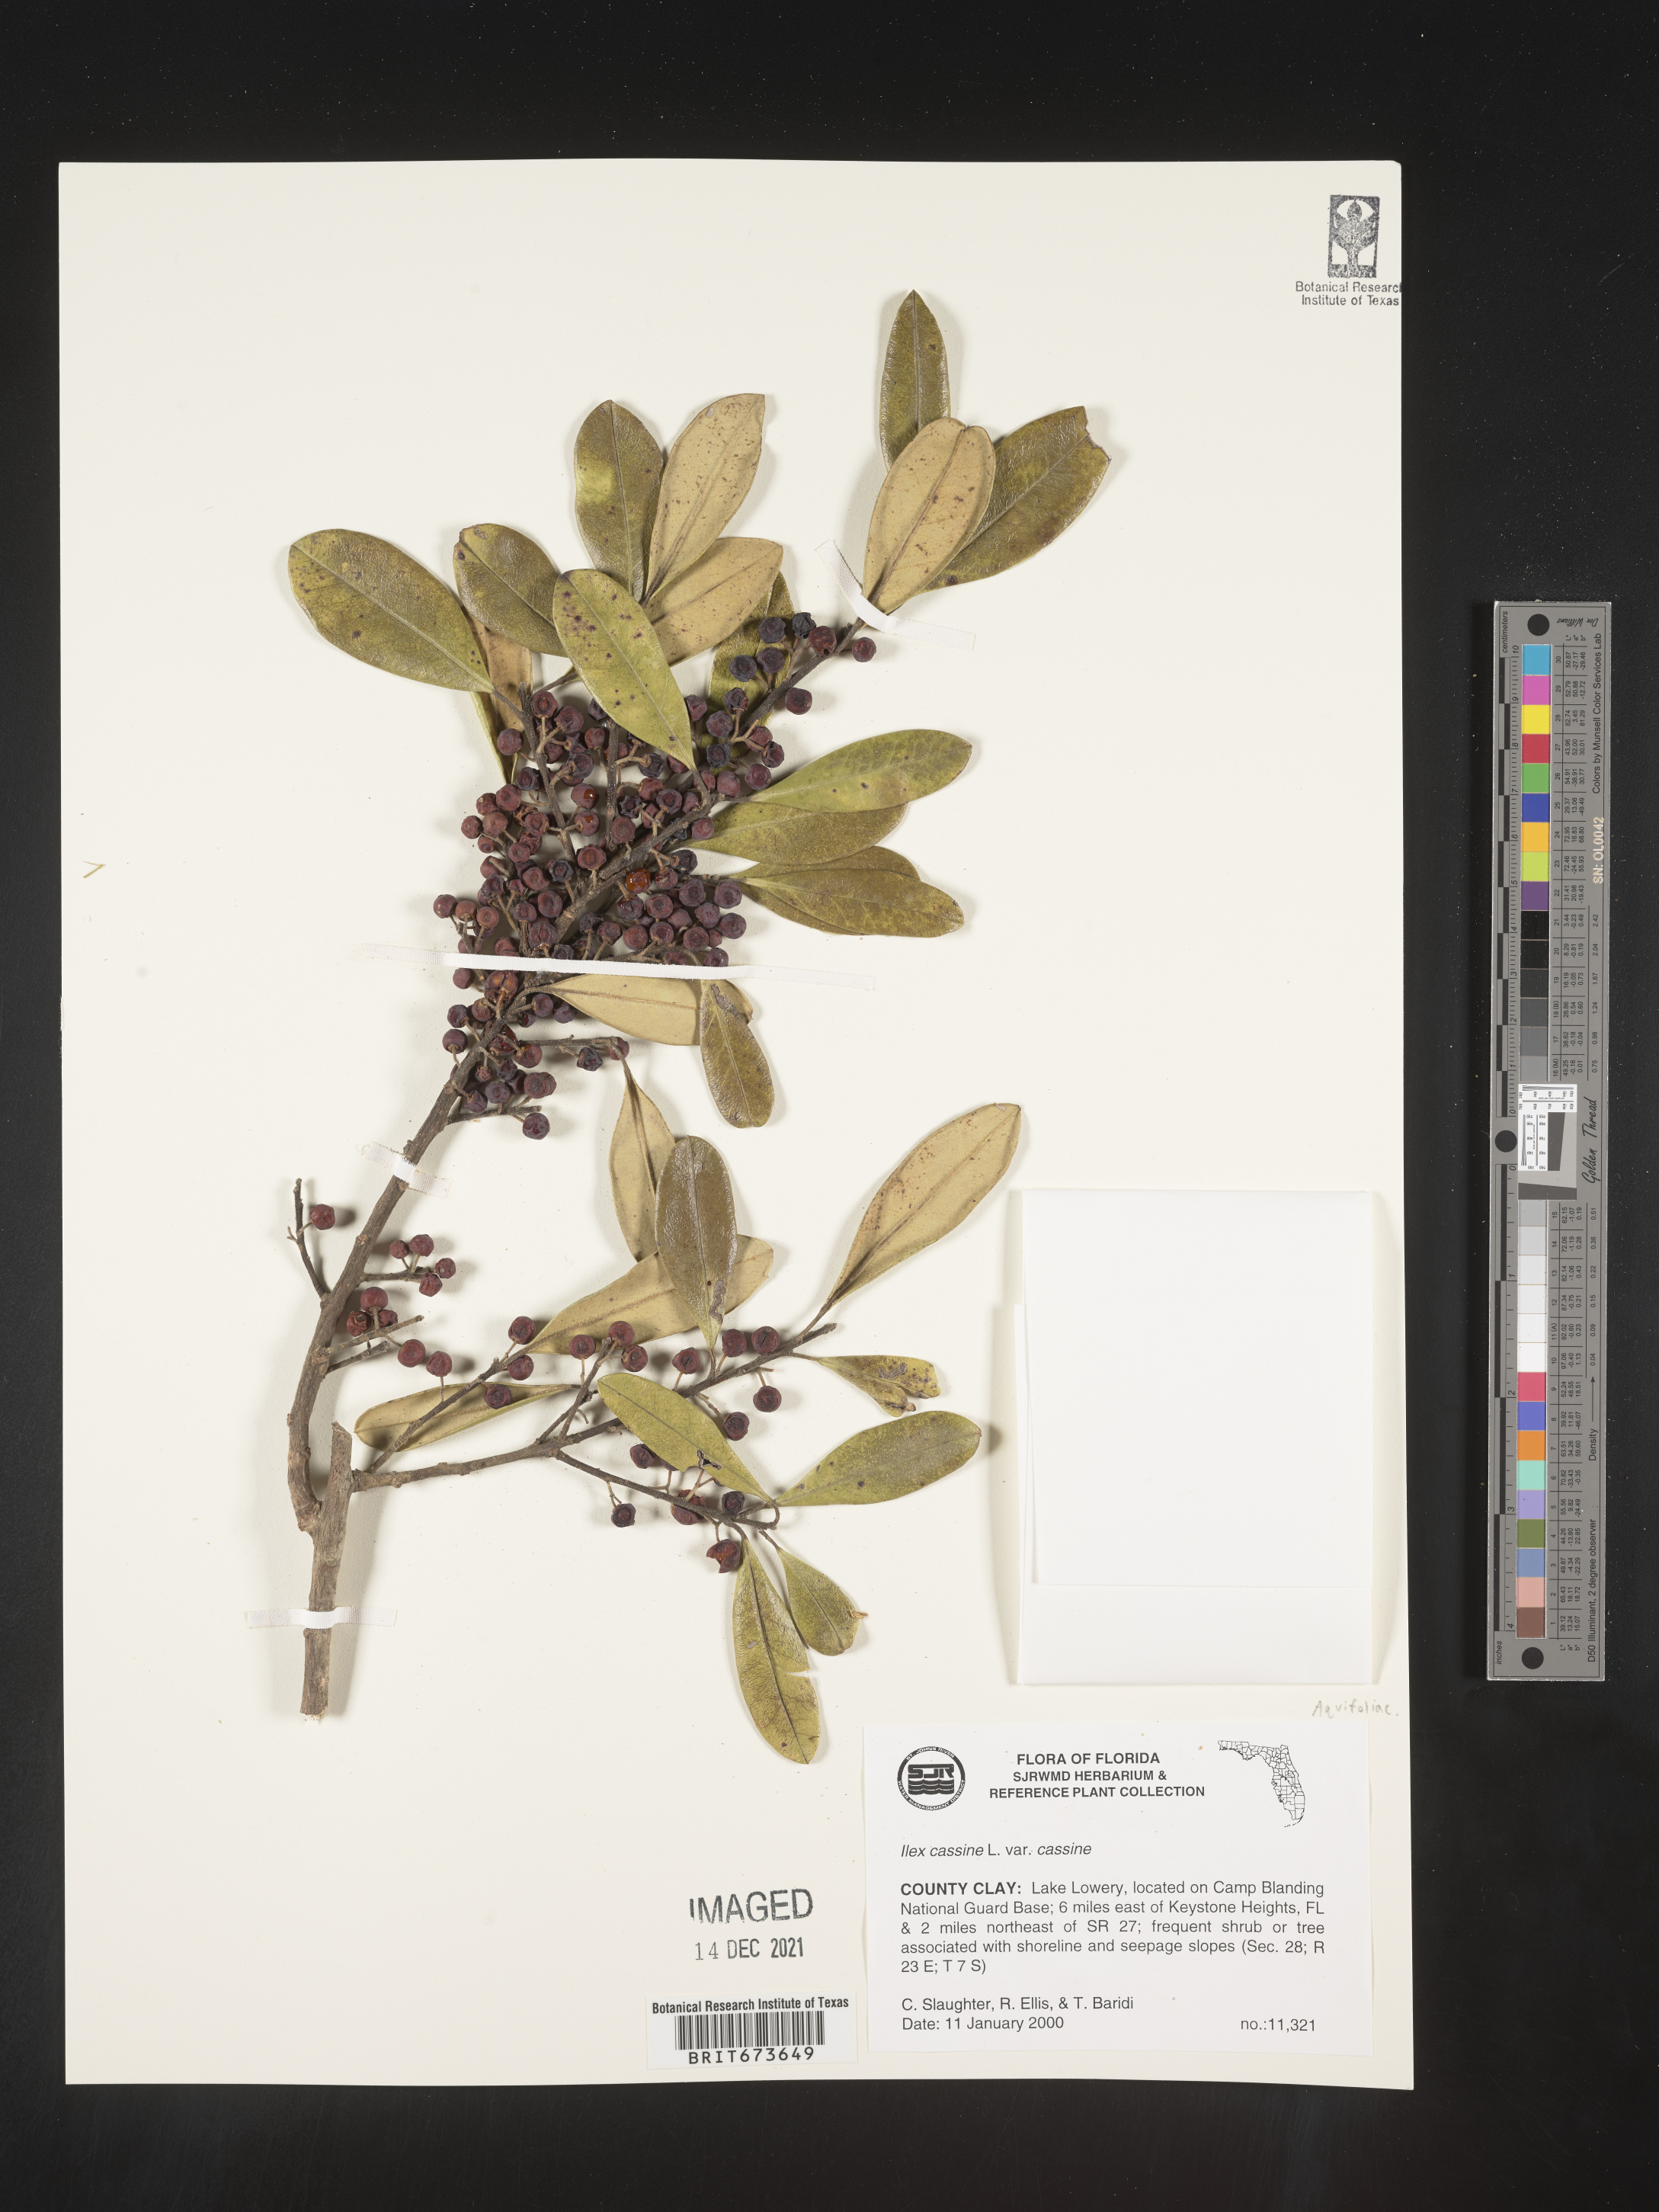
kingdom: Plantae
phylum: Tracheophyta
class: Magnoliopsida
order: Aquifoliales
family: Aquifoliaceae
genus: Ilex
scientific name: Ilex cassine
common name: Dahoon
